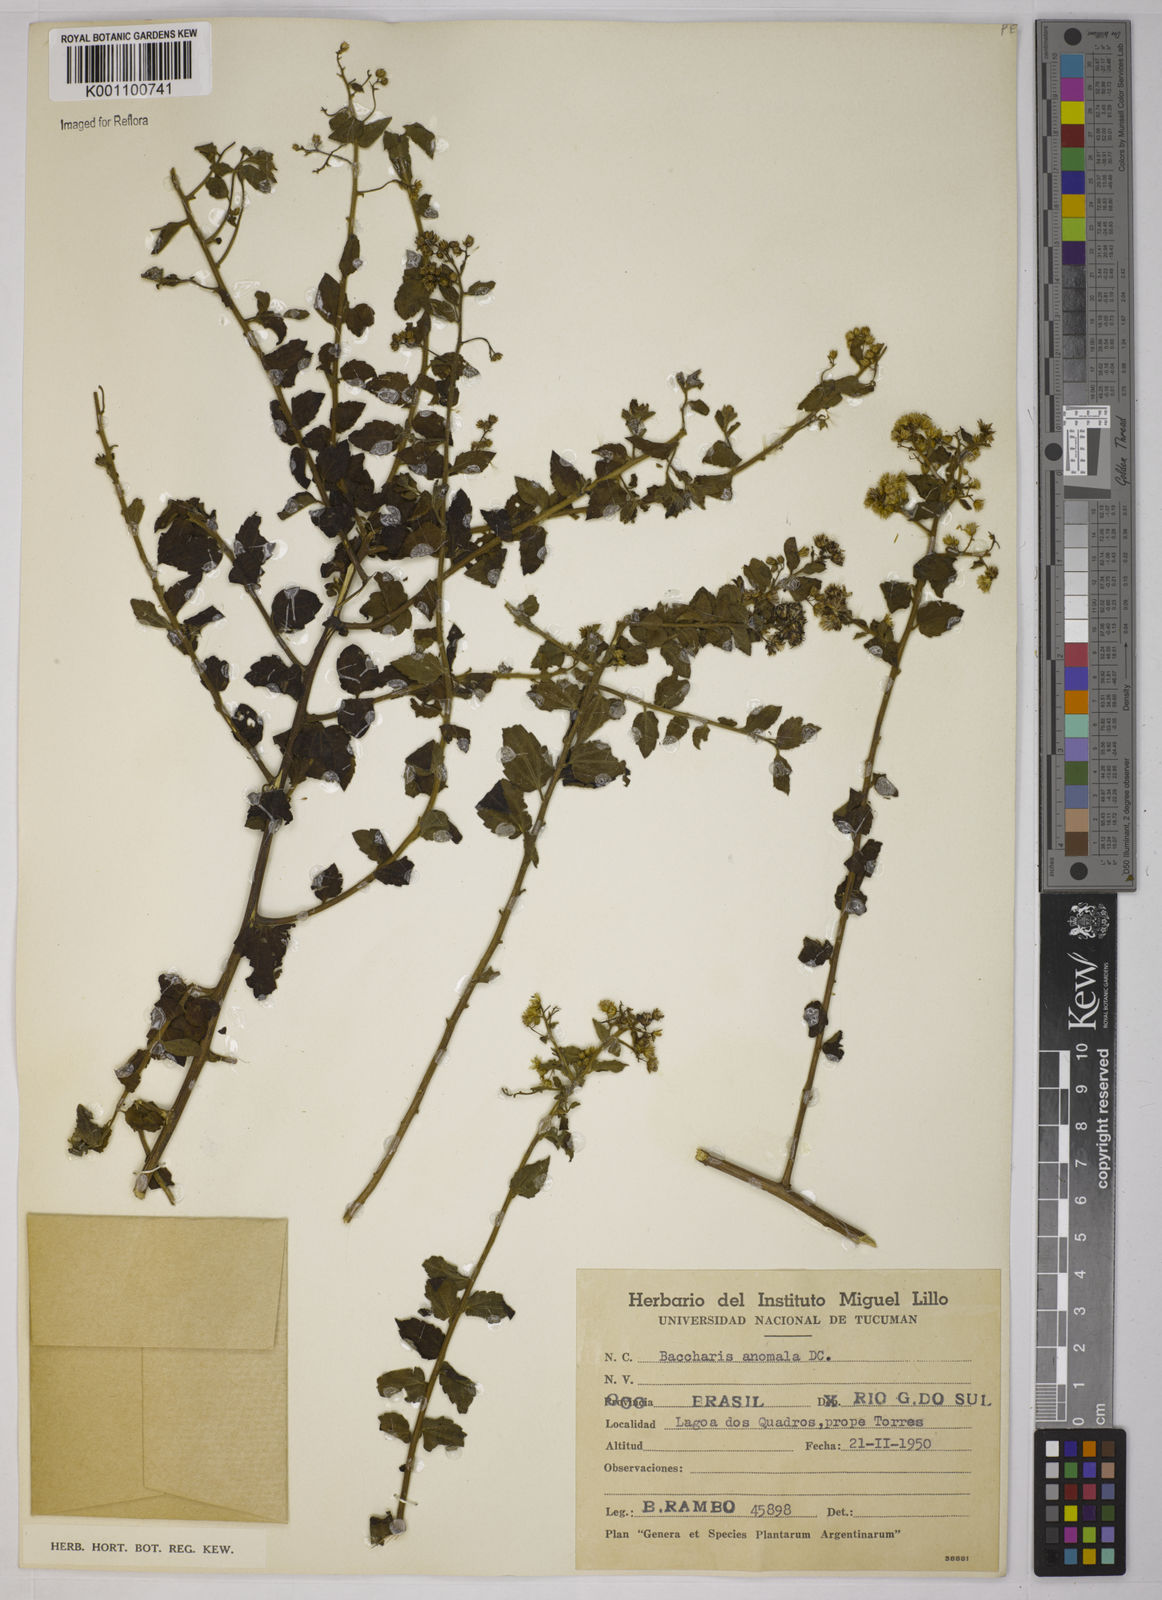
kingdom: Plantae
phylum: Tracheophyta
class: Magnoliopsida
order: Asterales
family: Asteraceae
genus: Baccharis
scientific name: Baccharis anomala
